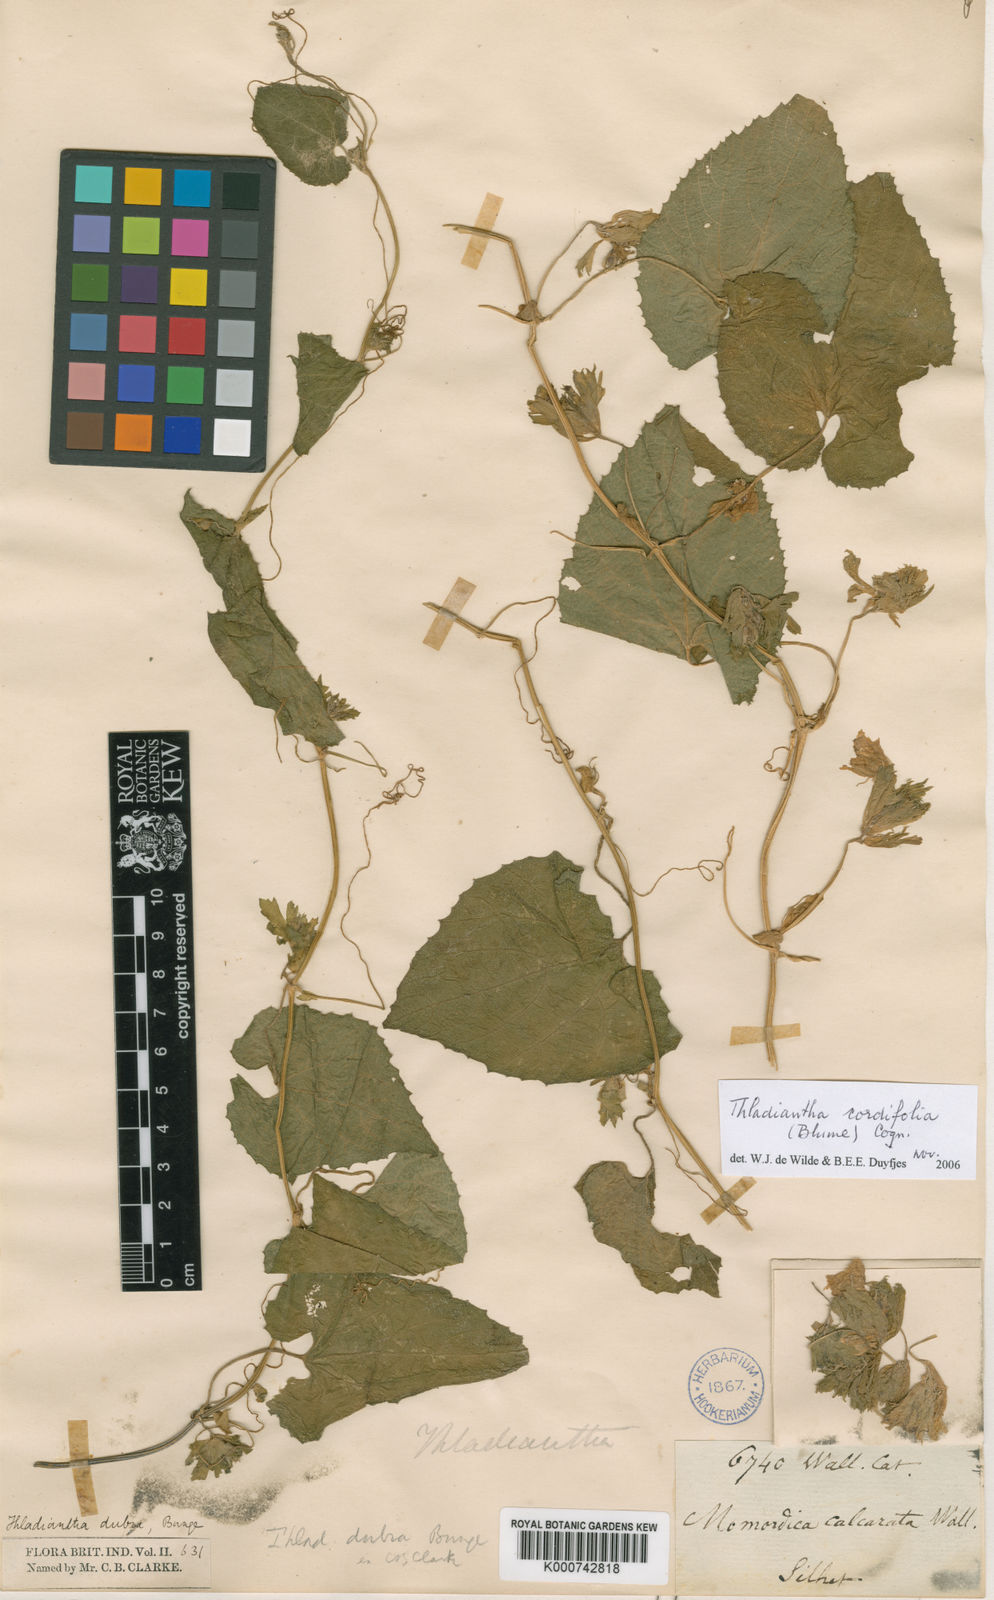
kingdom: Plantae
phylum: Tracheophyta
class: Magnoliopsida
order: Cucurbitales
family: Cucurbitaceae
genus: Thladiantha
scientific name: Thladiantha cordifolia
